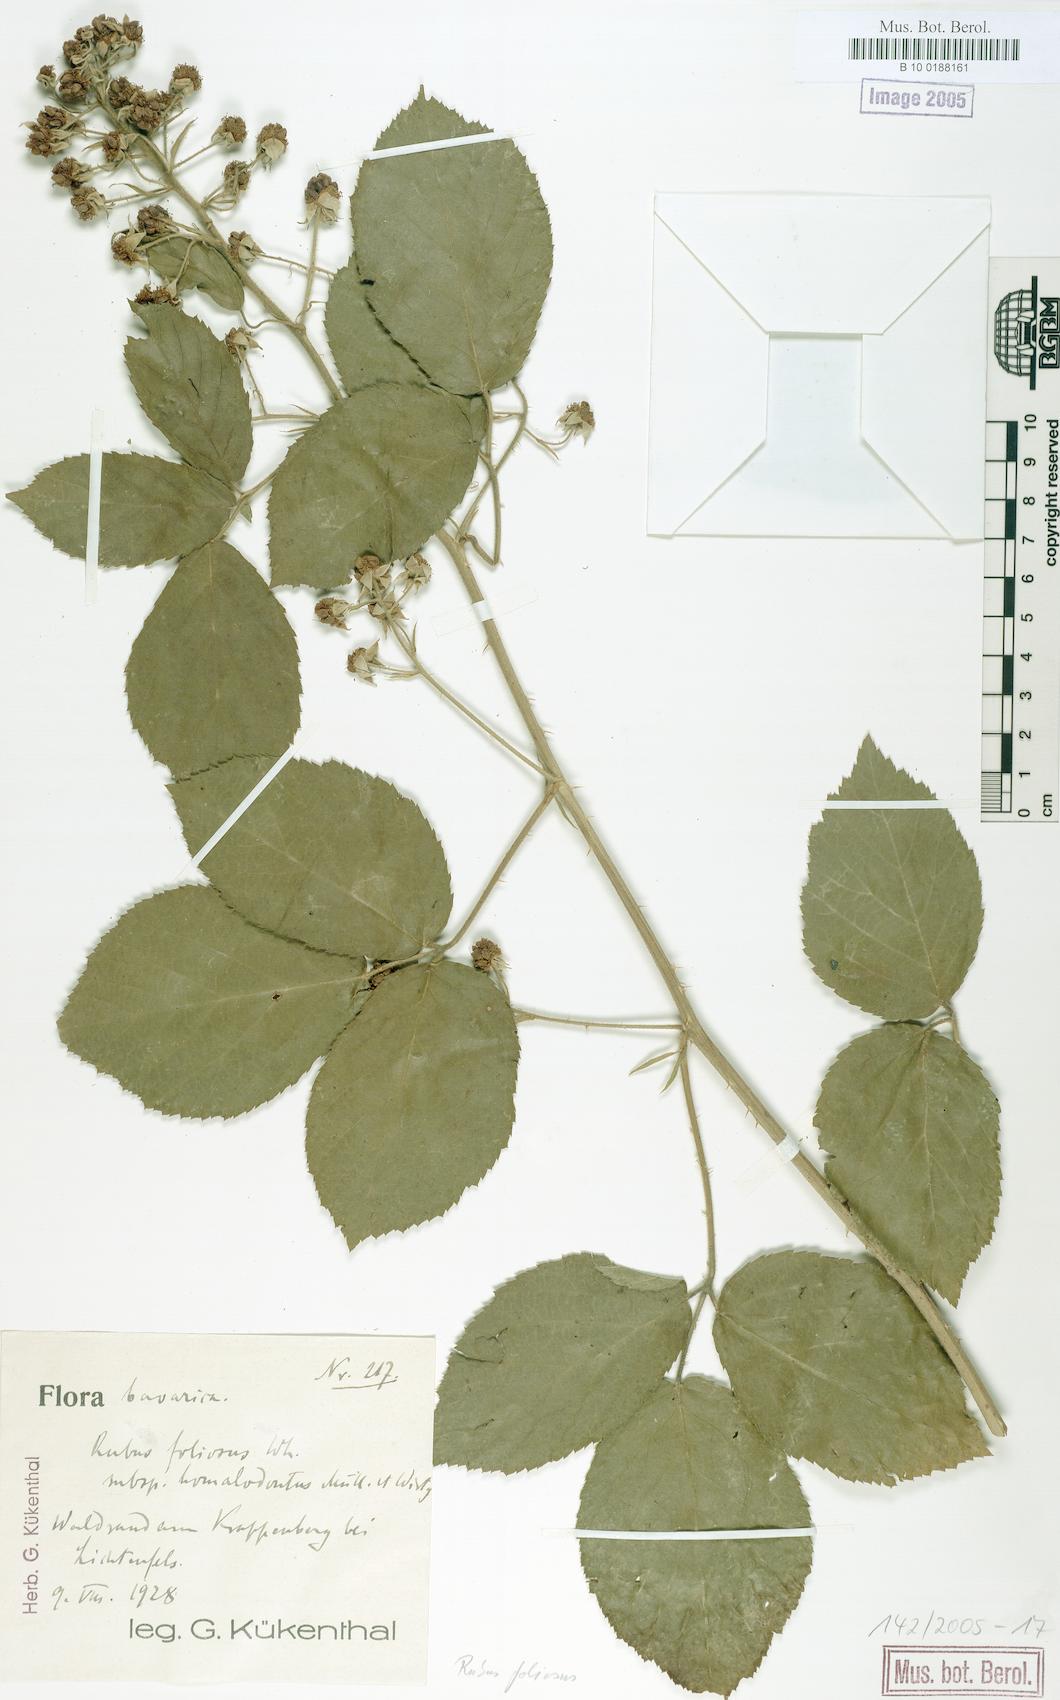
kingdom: Plantae
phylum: Tracheophyta
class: Magnoliopsida
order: Rosales
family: Rosaceae
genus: Rubus
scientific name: Rubus silvae-thuringiae
